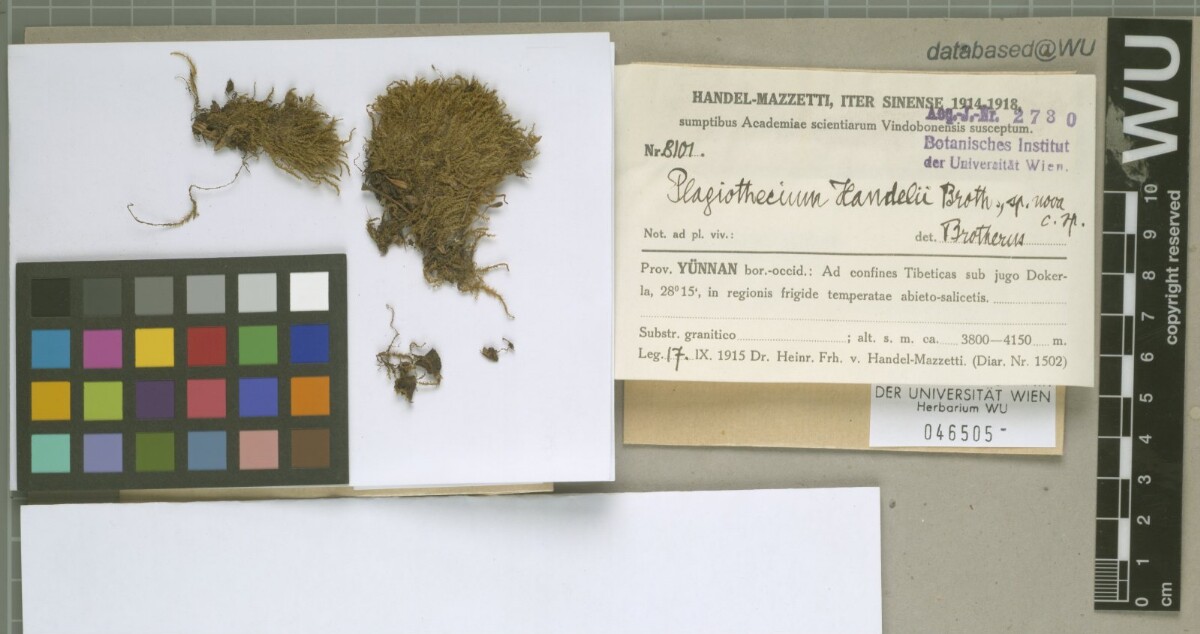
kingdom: Plantae
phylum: Bryophyta
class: Bryopsida
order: Hypnales
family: Plagiotheciaceae
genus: Ortholimnobium
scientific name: Ortholimnobium handelii
